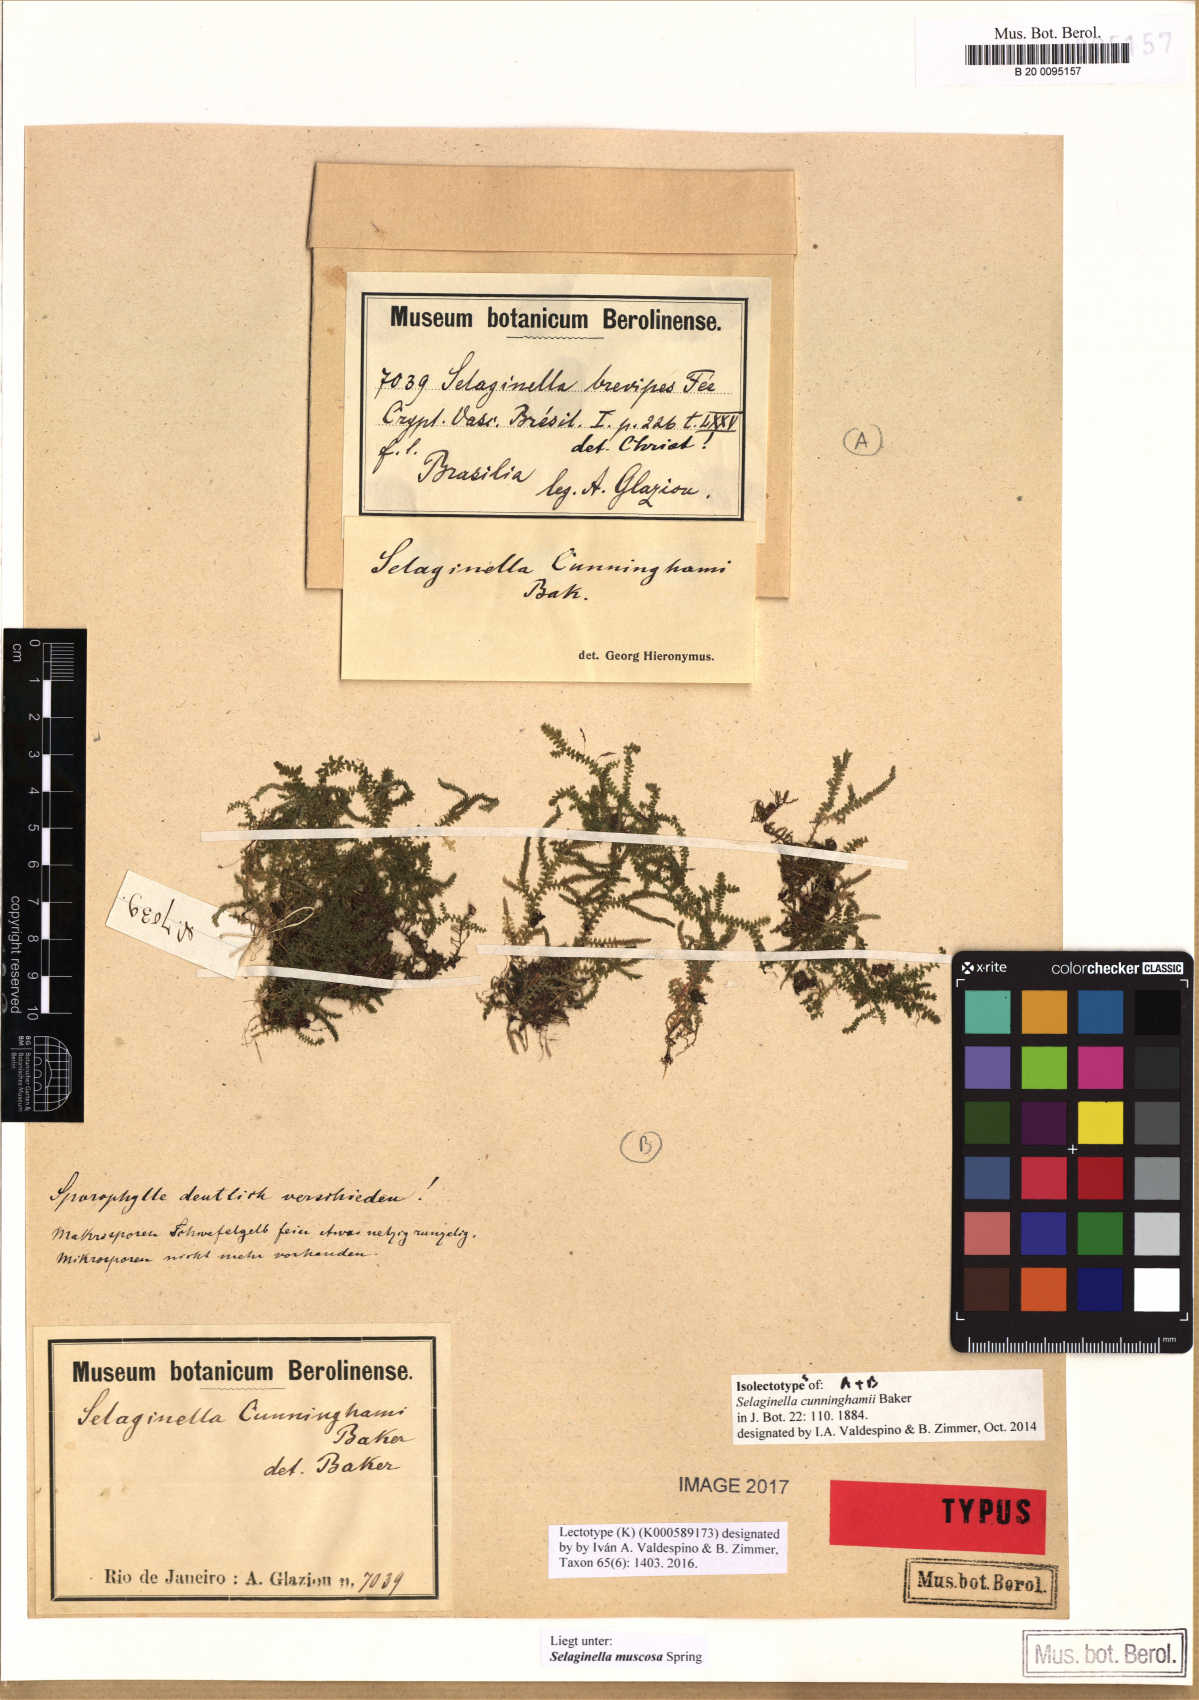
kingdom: Plantae
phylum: Tracheophyta
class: Lycopodiopsida
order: Selaginellales
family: Selaginellaceae
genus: Selaginella
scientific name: Selaginella muscosa
